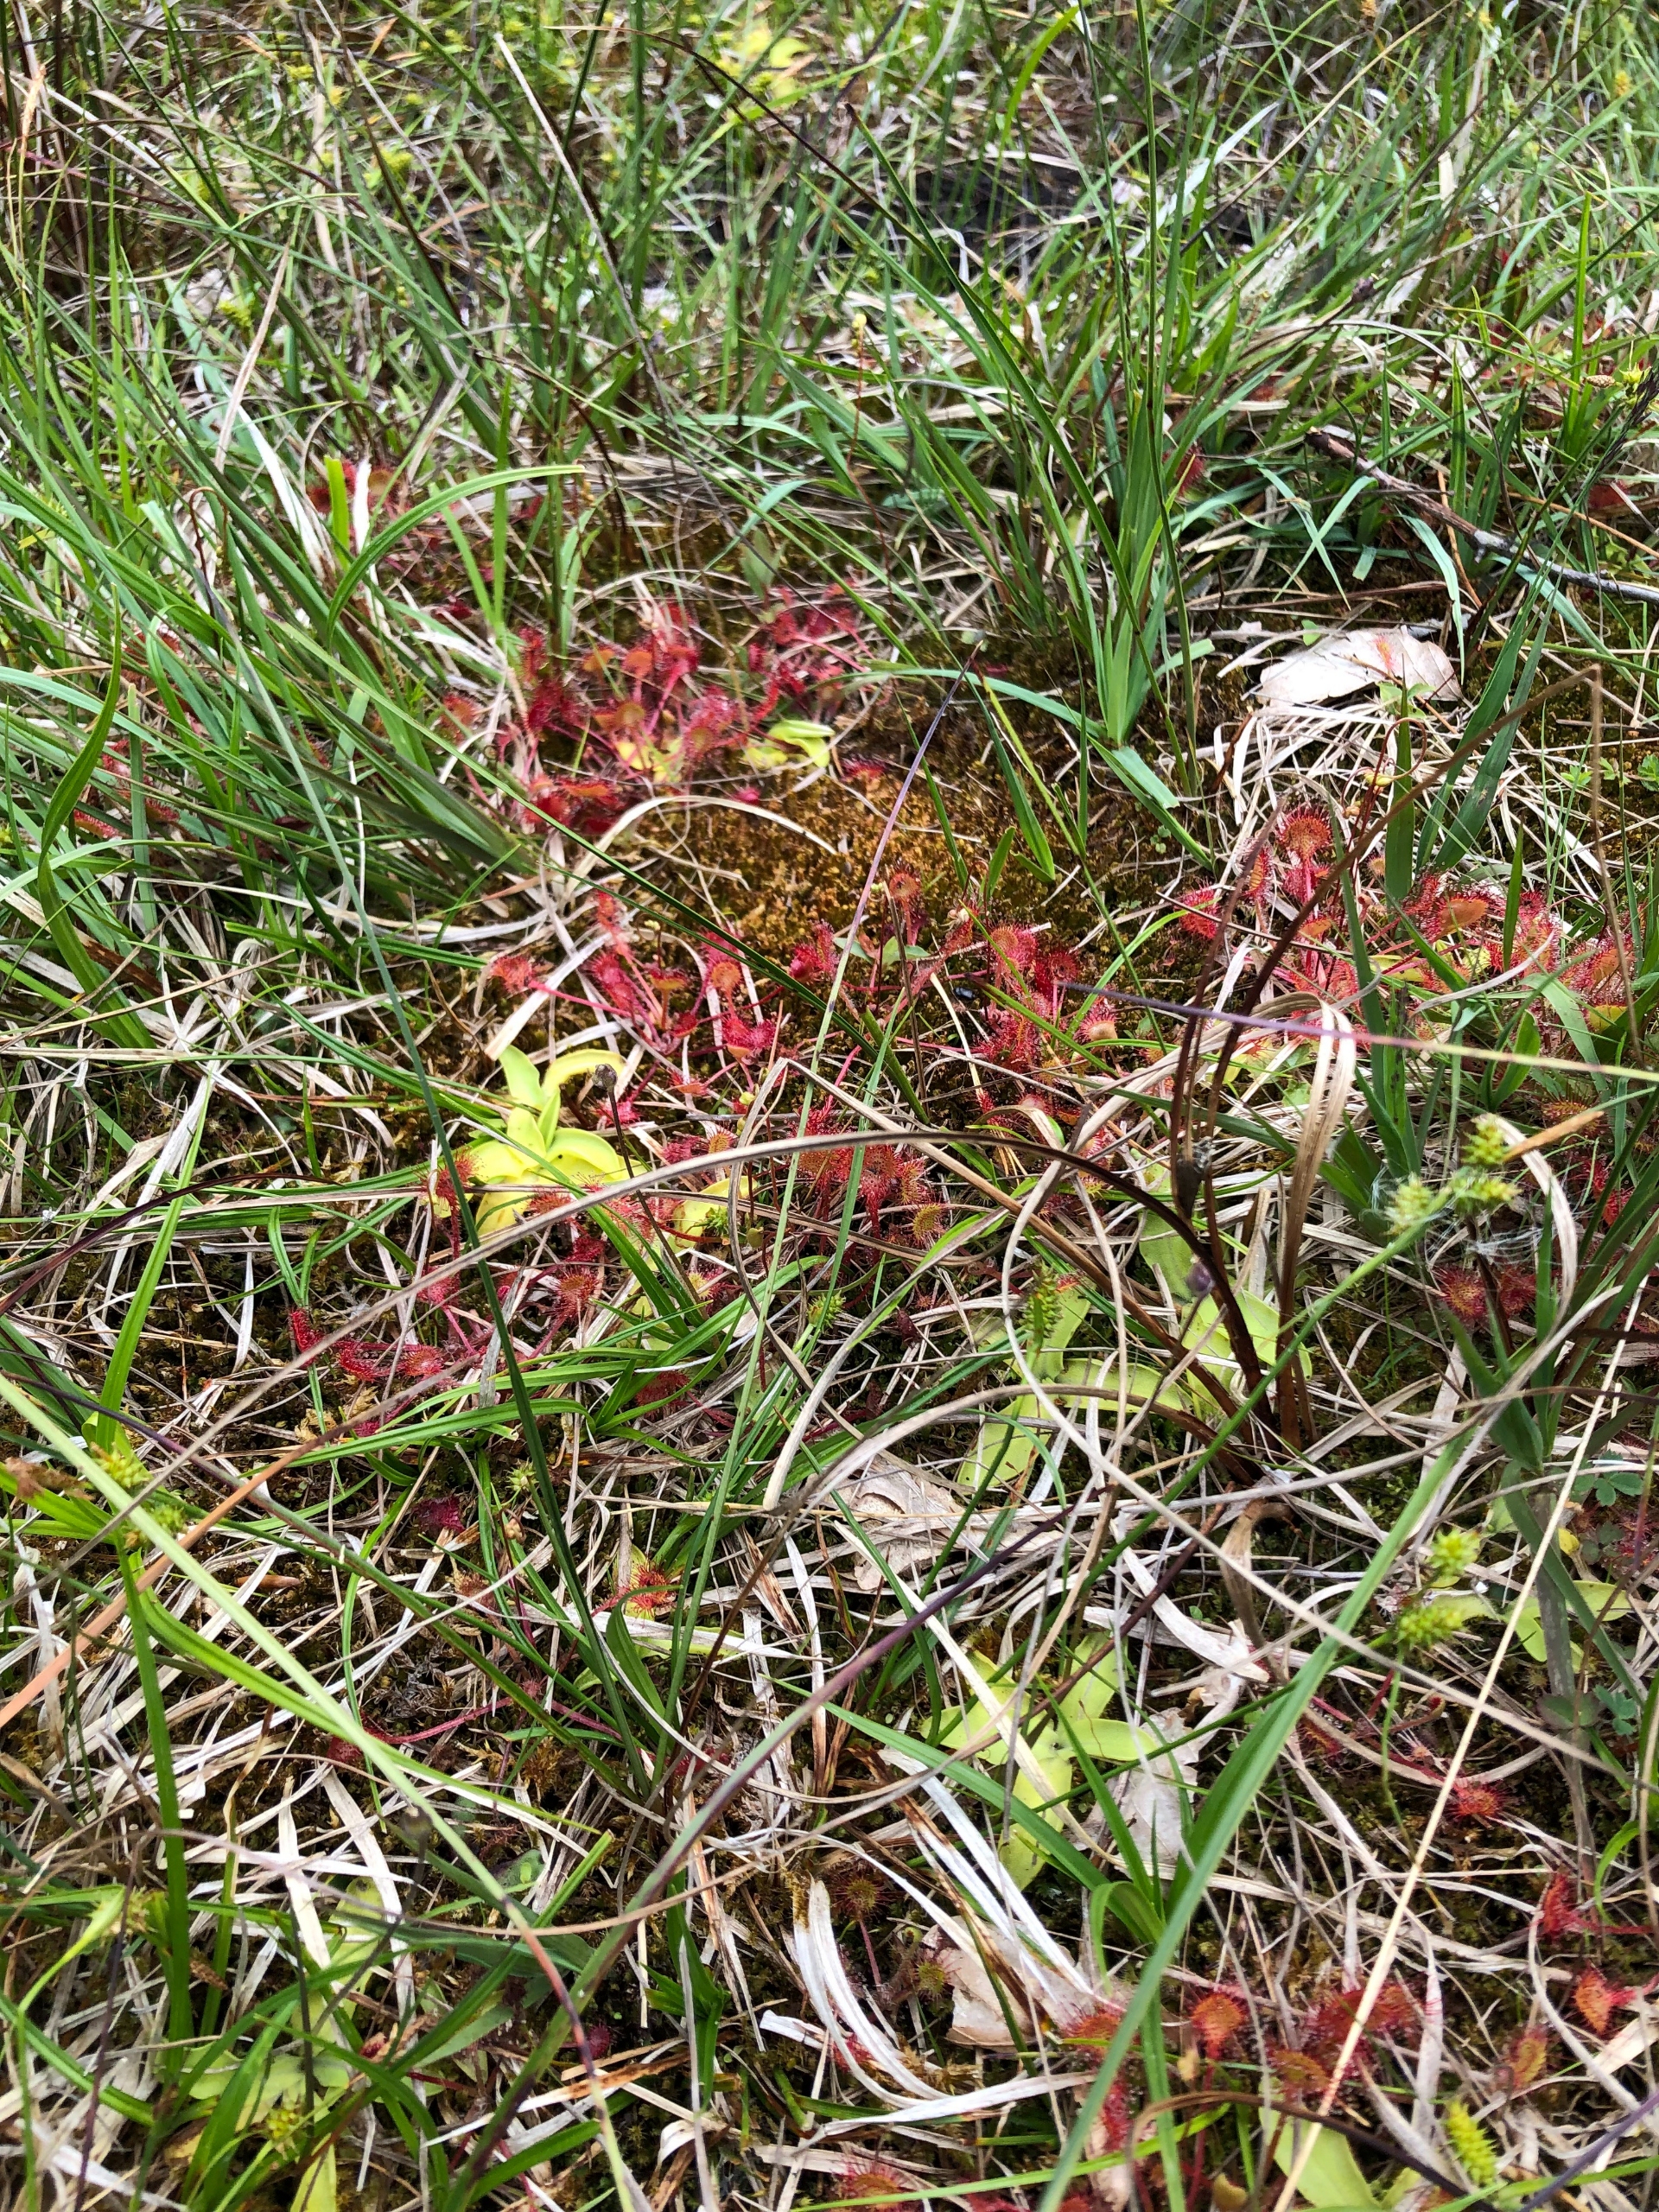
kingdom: Plantae
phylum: Tracheophyta
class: Magnoliopsida
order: Lamiales
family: Lentibulariaceae
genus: Pinguicula
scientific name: Pinguicula vulgaris
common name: Vibefedt
